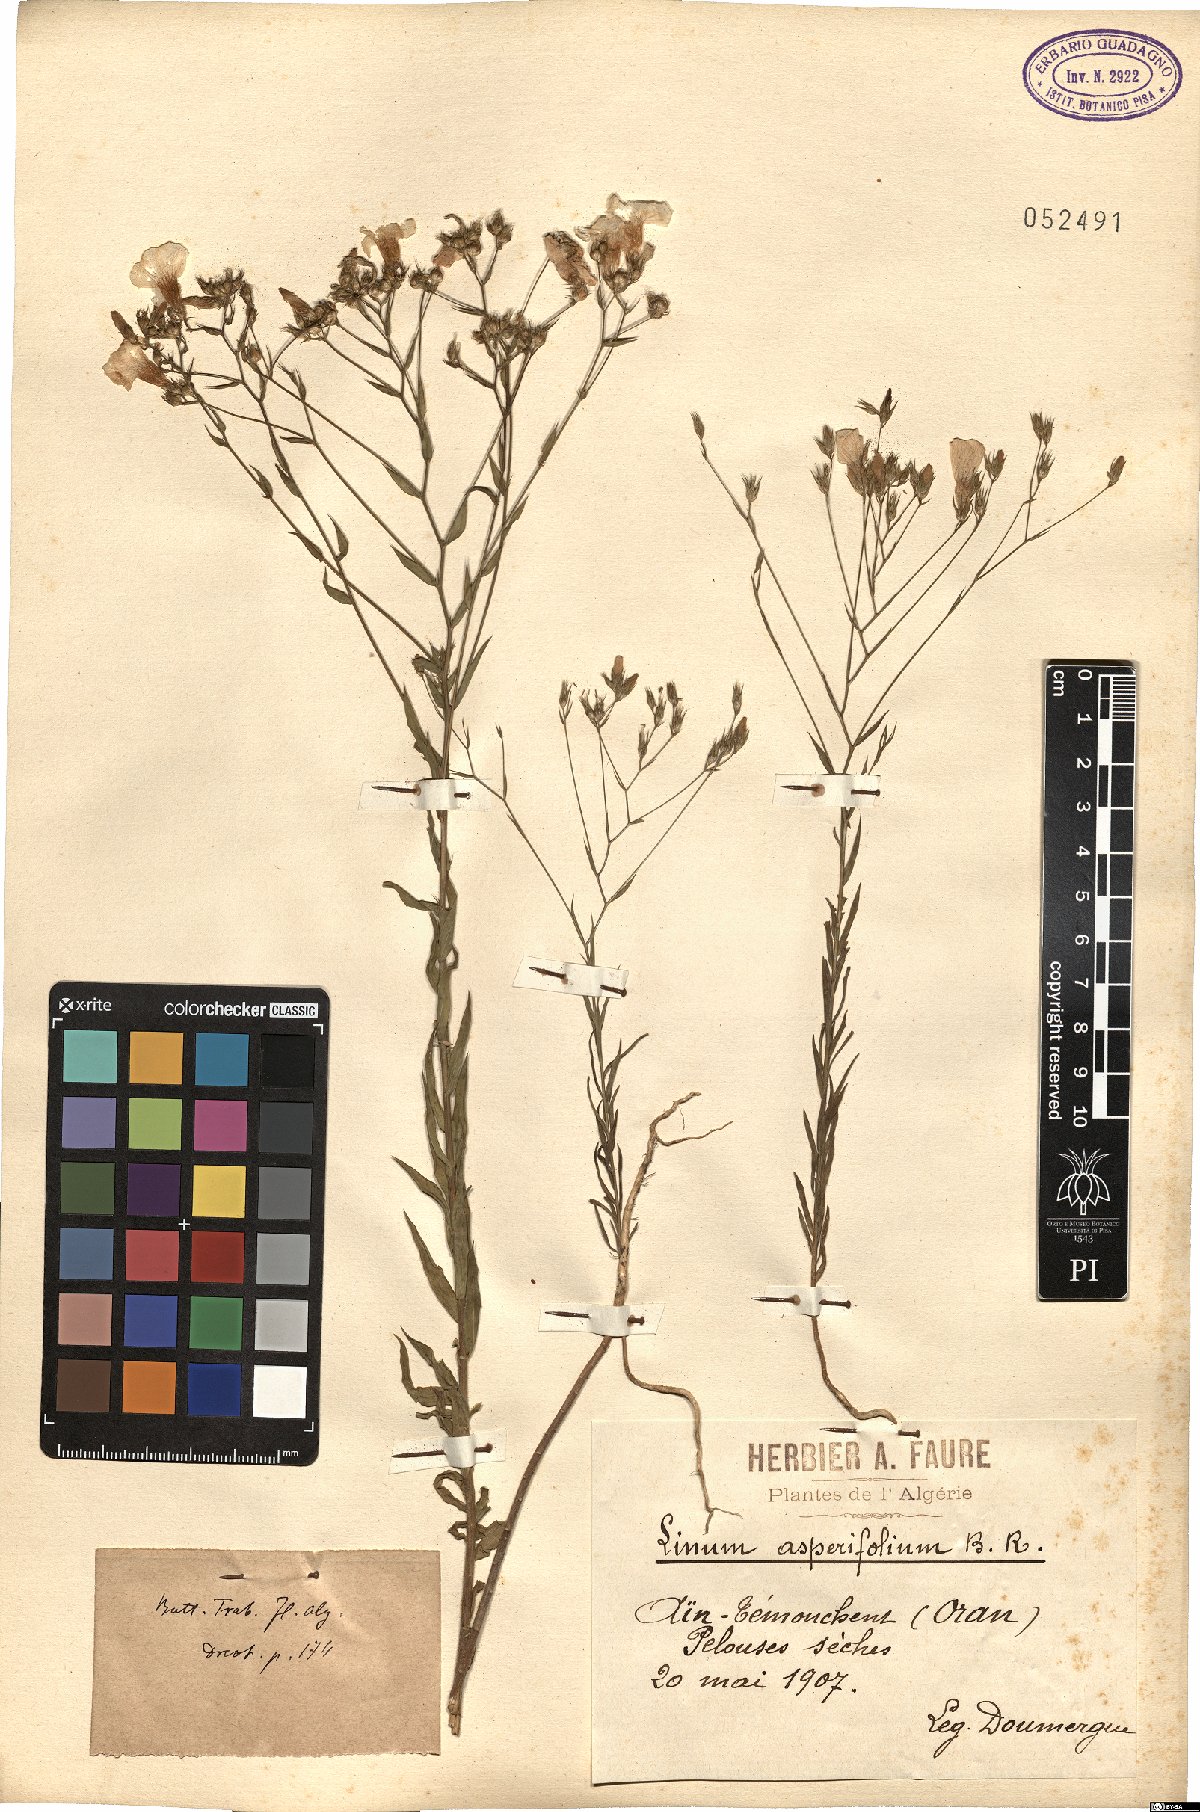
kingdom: Plantae
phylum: Tracheophyta
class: Magnoliopsida
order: Malpighiales
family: Linaceae
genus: Linum
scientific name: Linum corymbiferum
